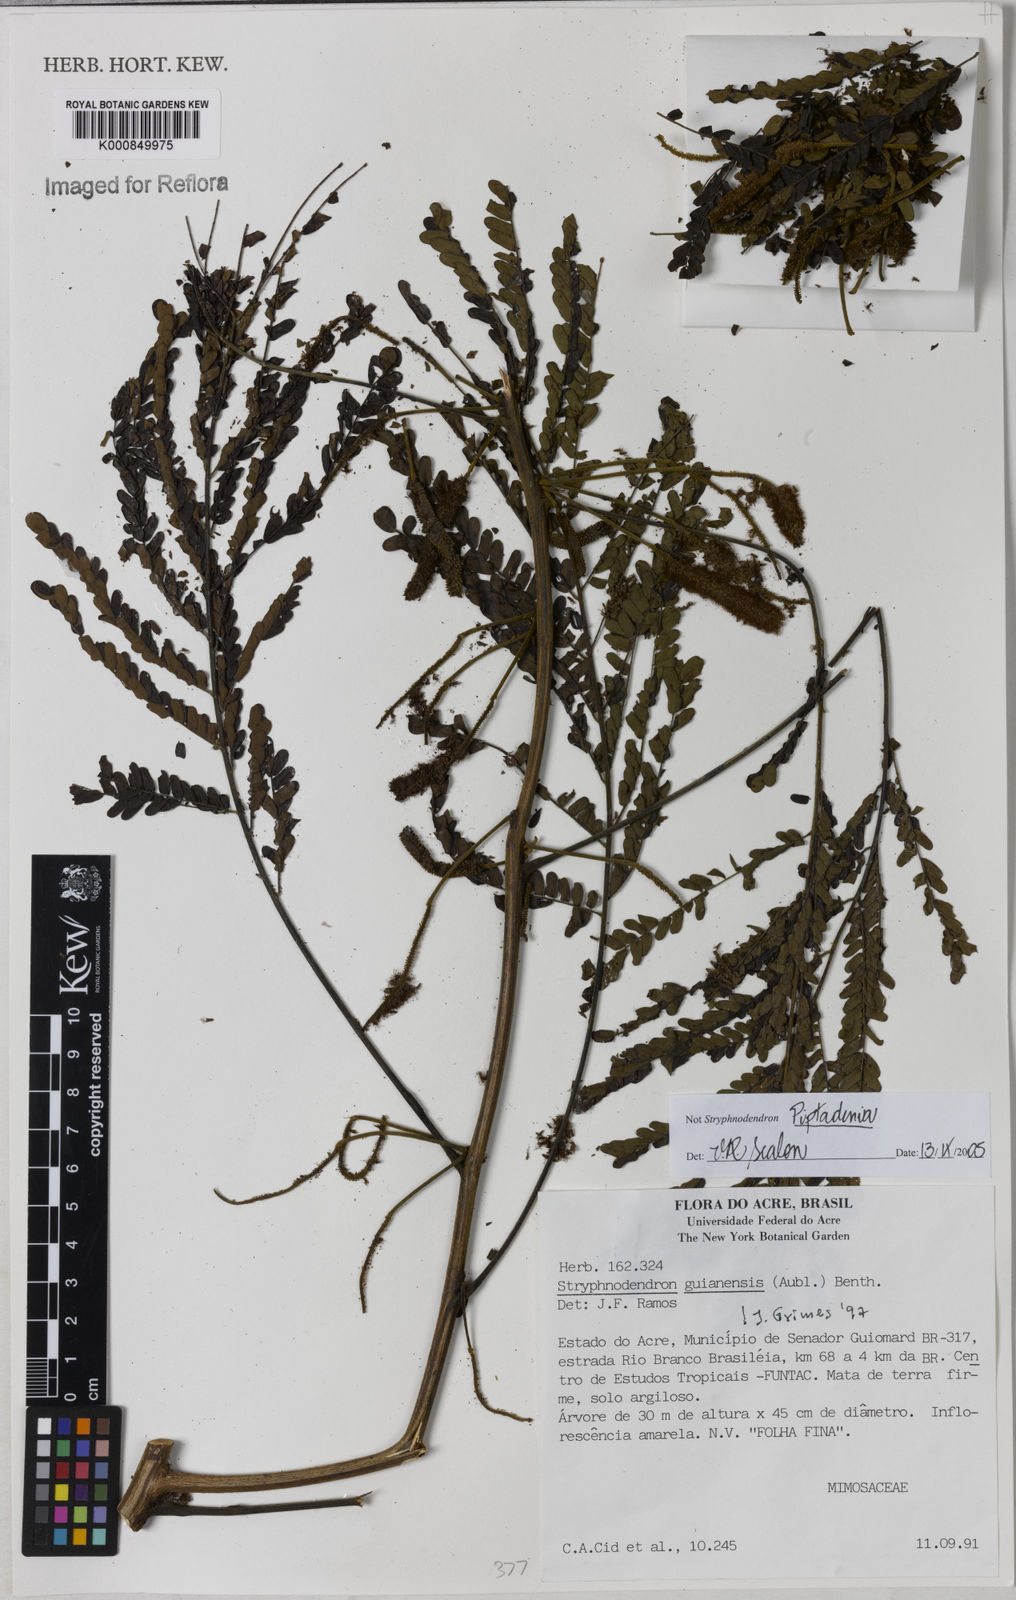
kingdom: Plantae
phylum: Tracheophyta
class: Magnoliopsida
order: Fabales
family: Fabaceae
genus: Piptadenia
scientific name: Piptadenia
